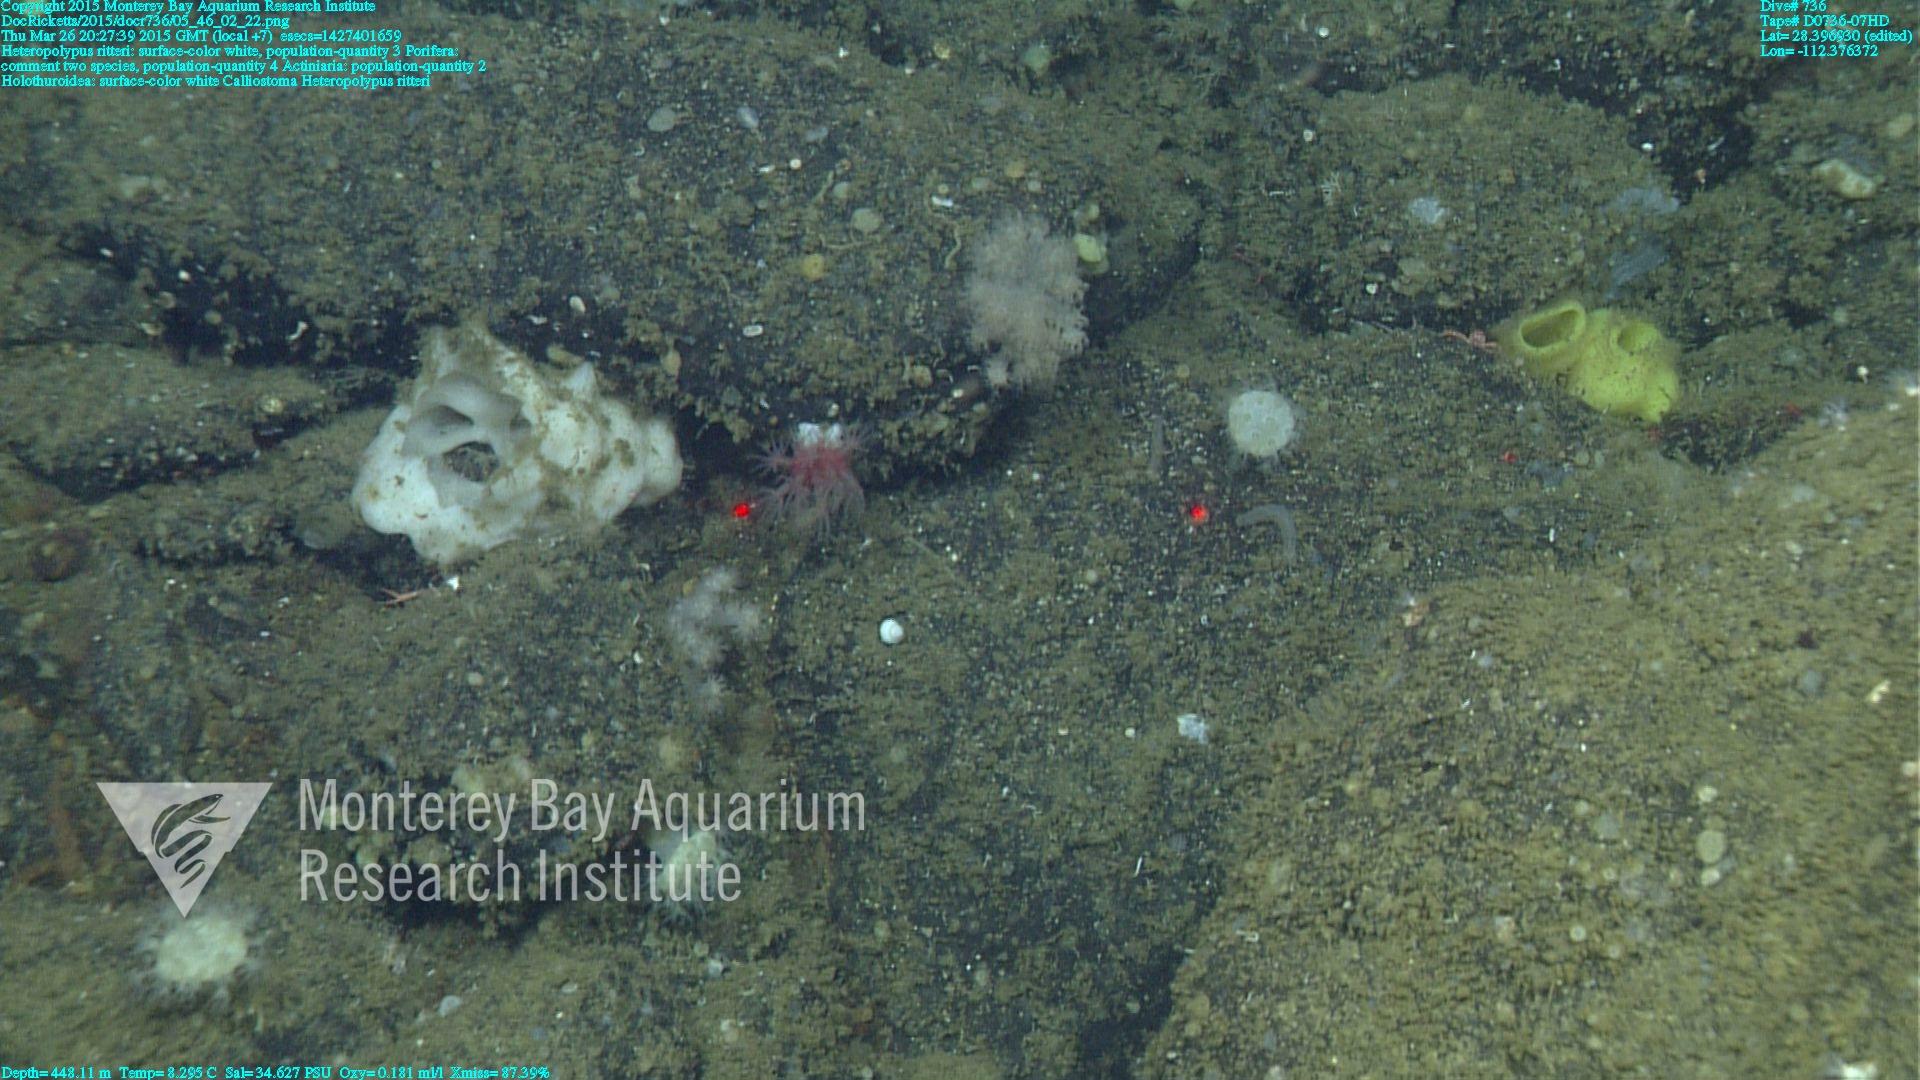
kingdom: Animalia
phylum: Cnidaria
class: Anthozoa
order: Scleralcyonacea
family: Coralliidae
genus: Heteropolypus
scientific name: Heteropolypus ritteri
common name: Ritter's soft coral
